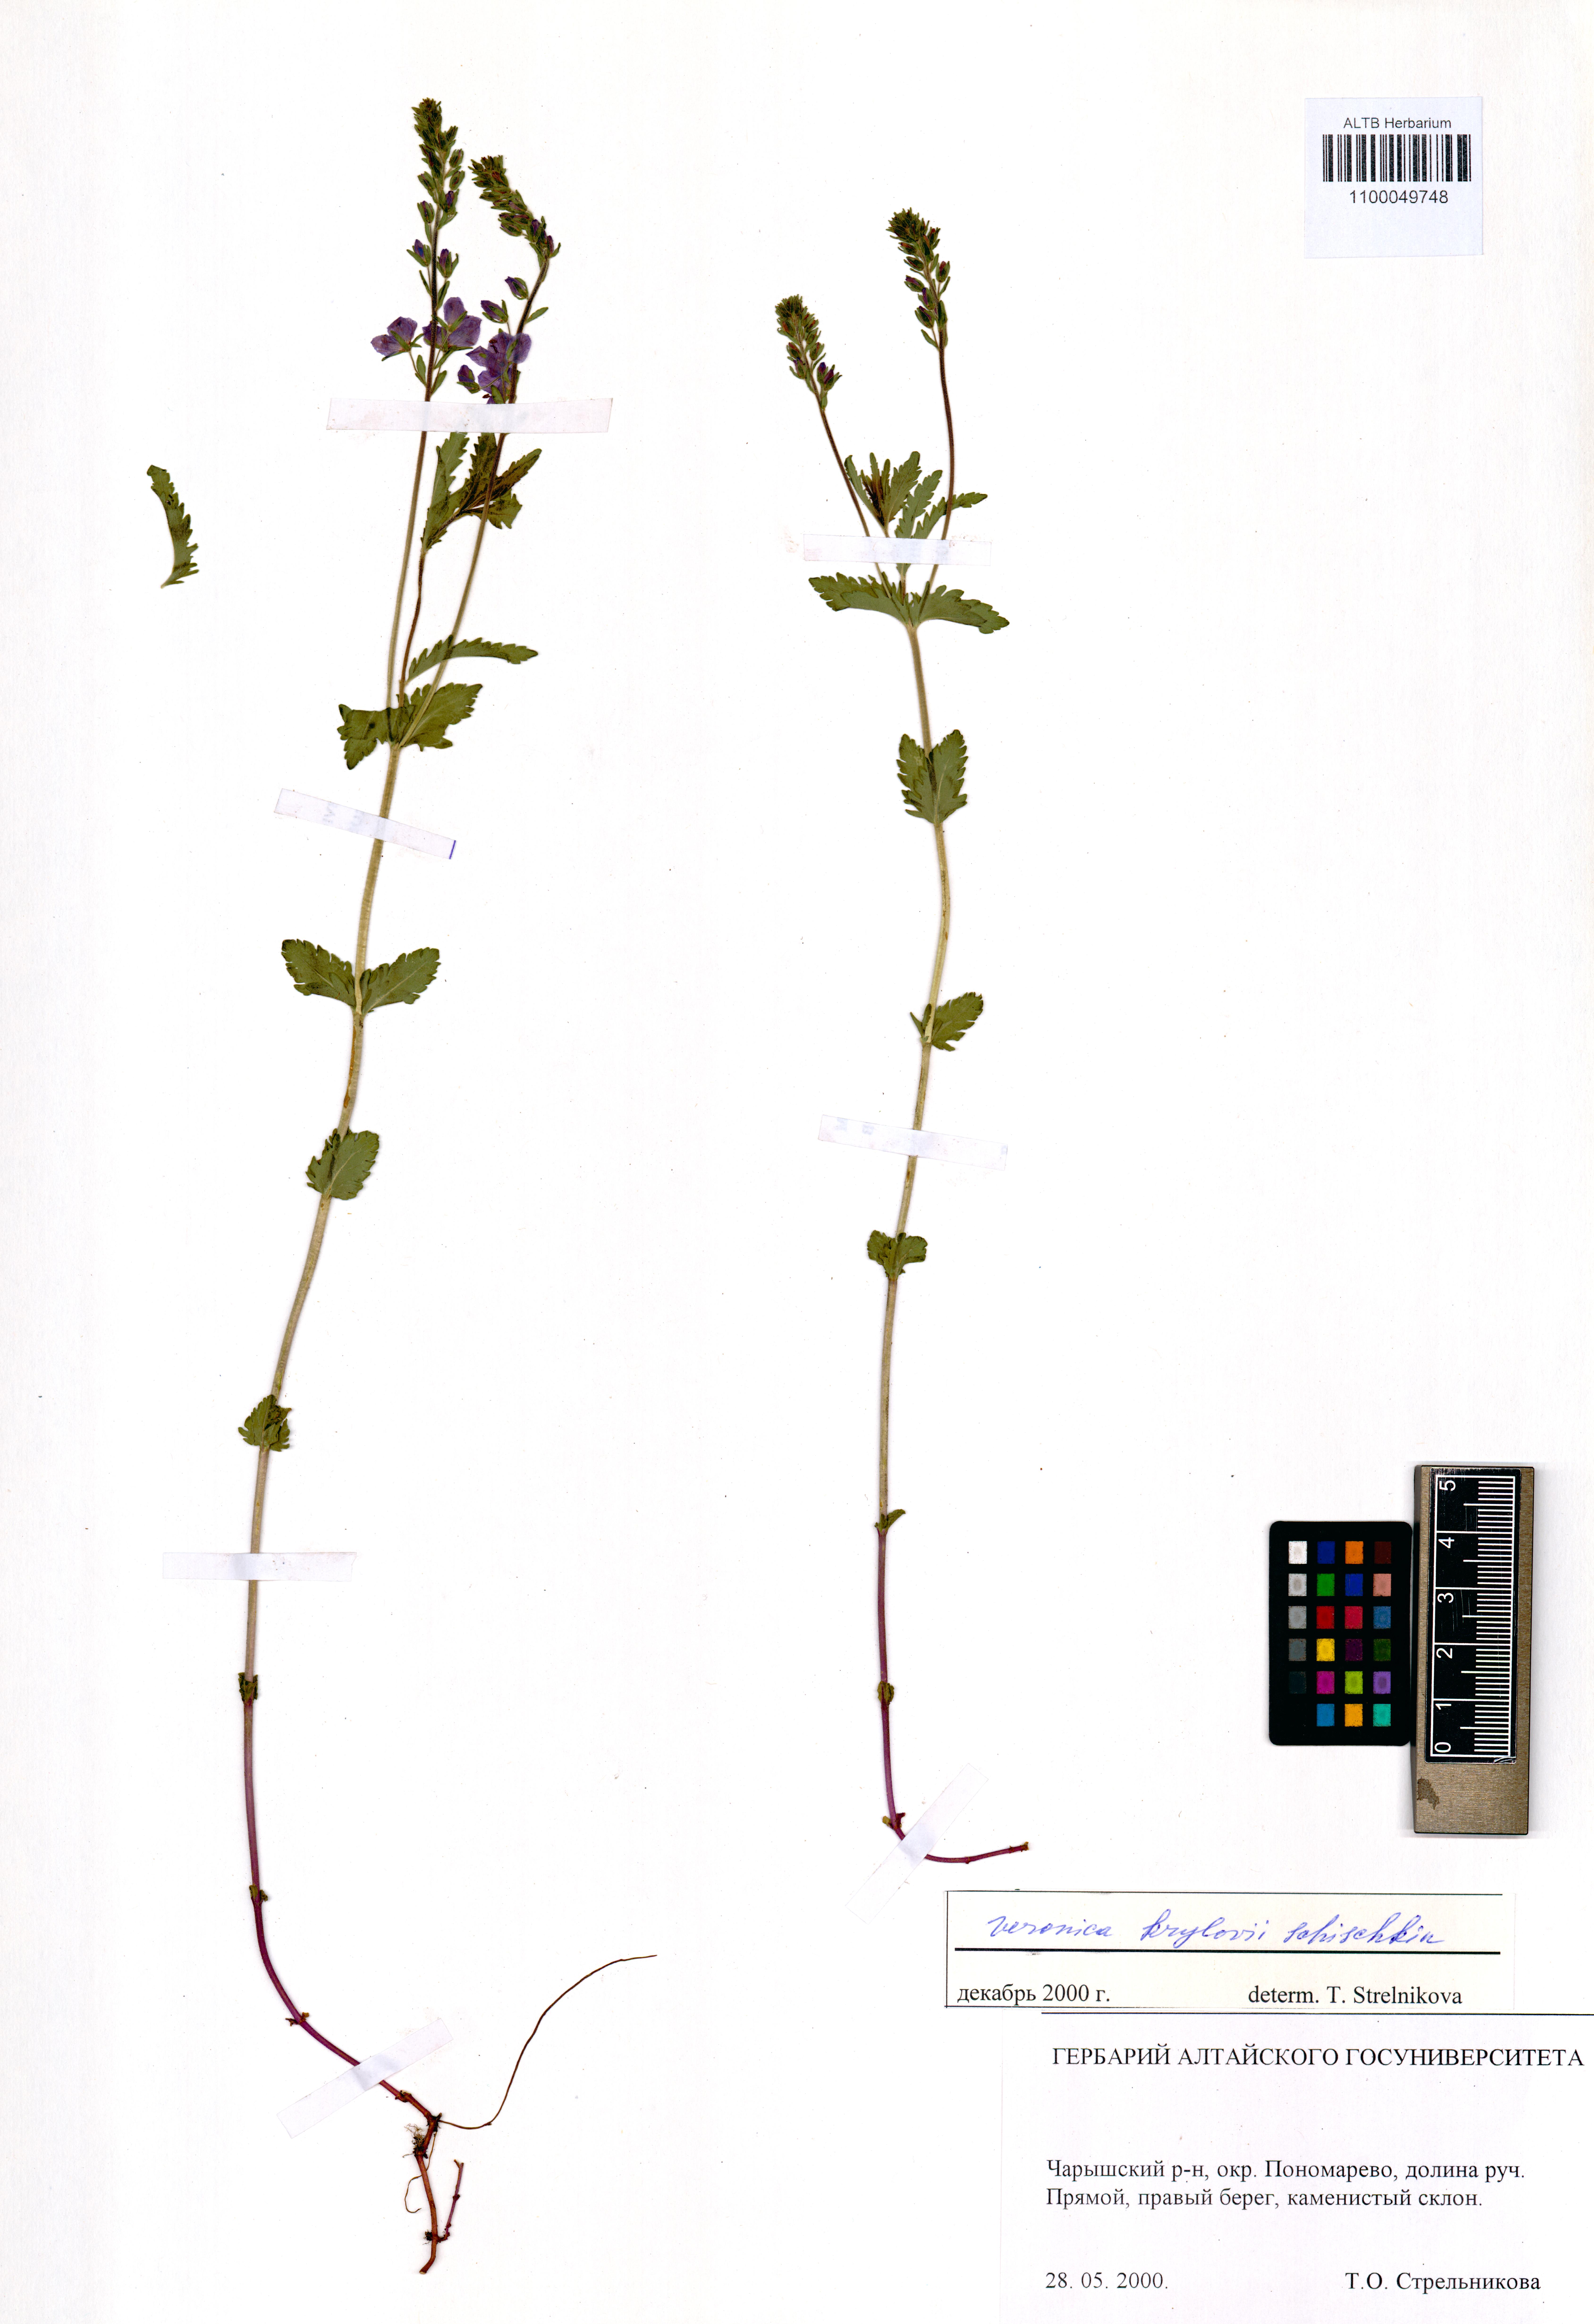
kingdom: Plantae
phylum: Tracheophyta
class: Magnoliopsida
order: Lamiales
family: Plantaginaceae
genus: Veronica
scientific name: Veronica krylovii
